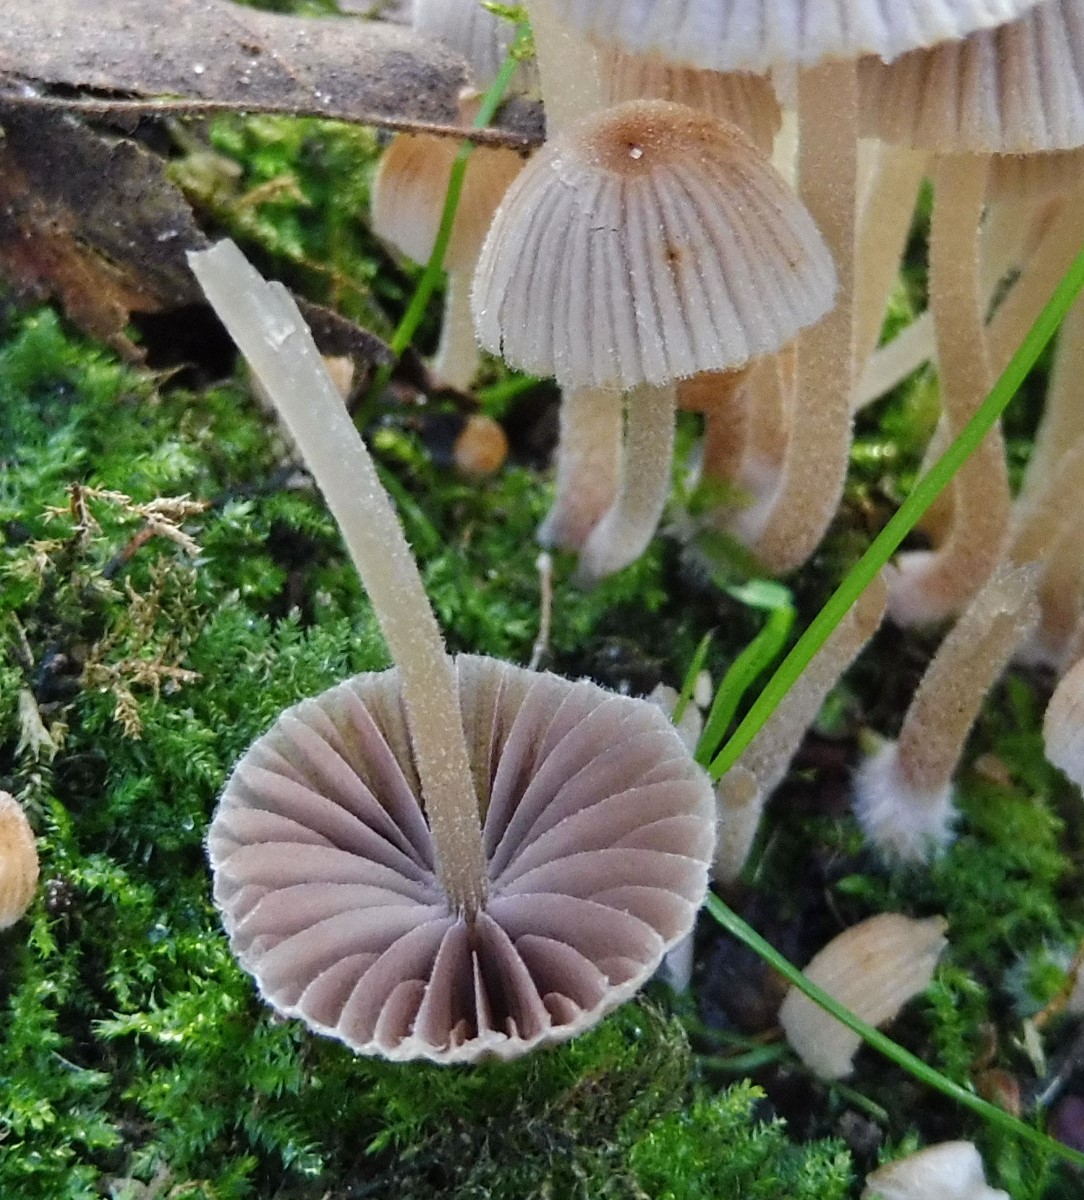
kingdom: Fungi
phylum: Basidiomycota
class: Agaricomycetes
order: Agaricales
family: Psathyrellaceae
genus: Coprinellus
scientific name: Coprinellus disseminatus
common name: bredsået blækhat
